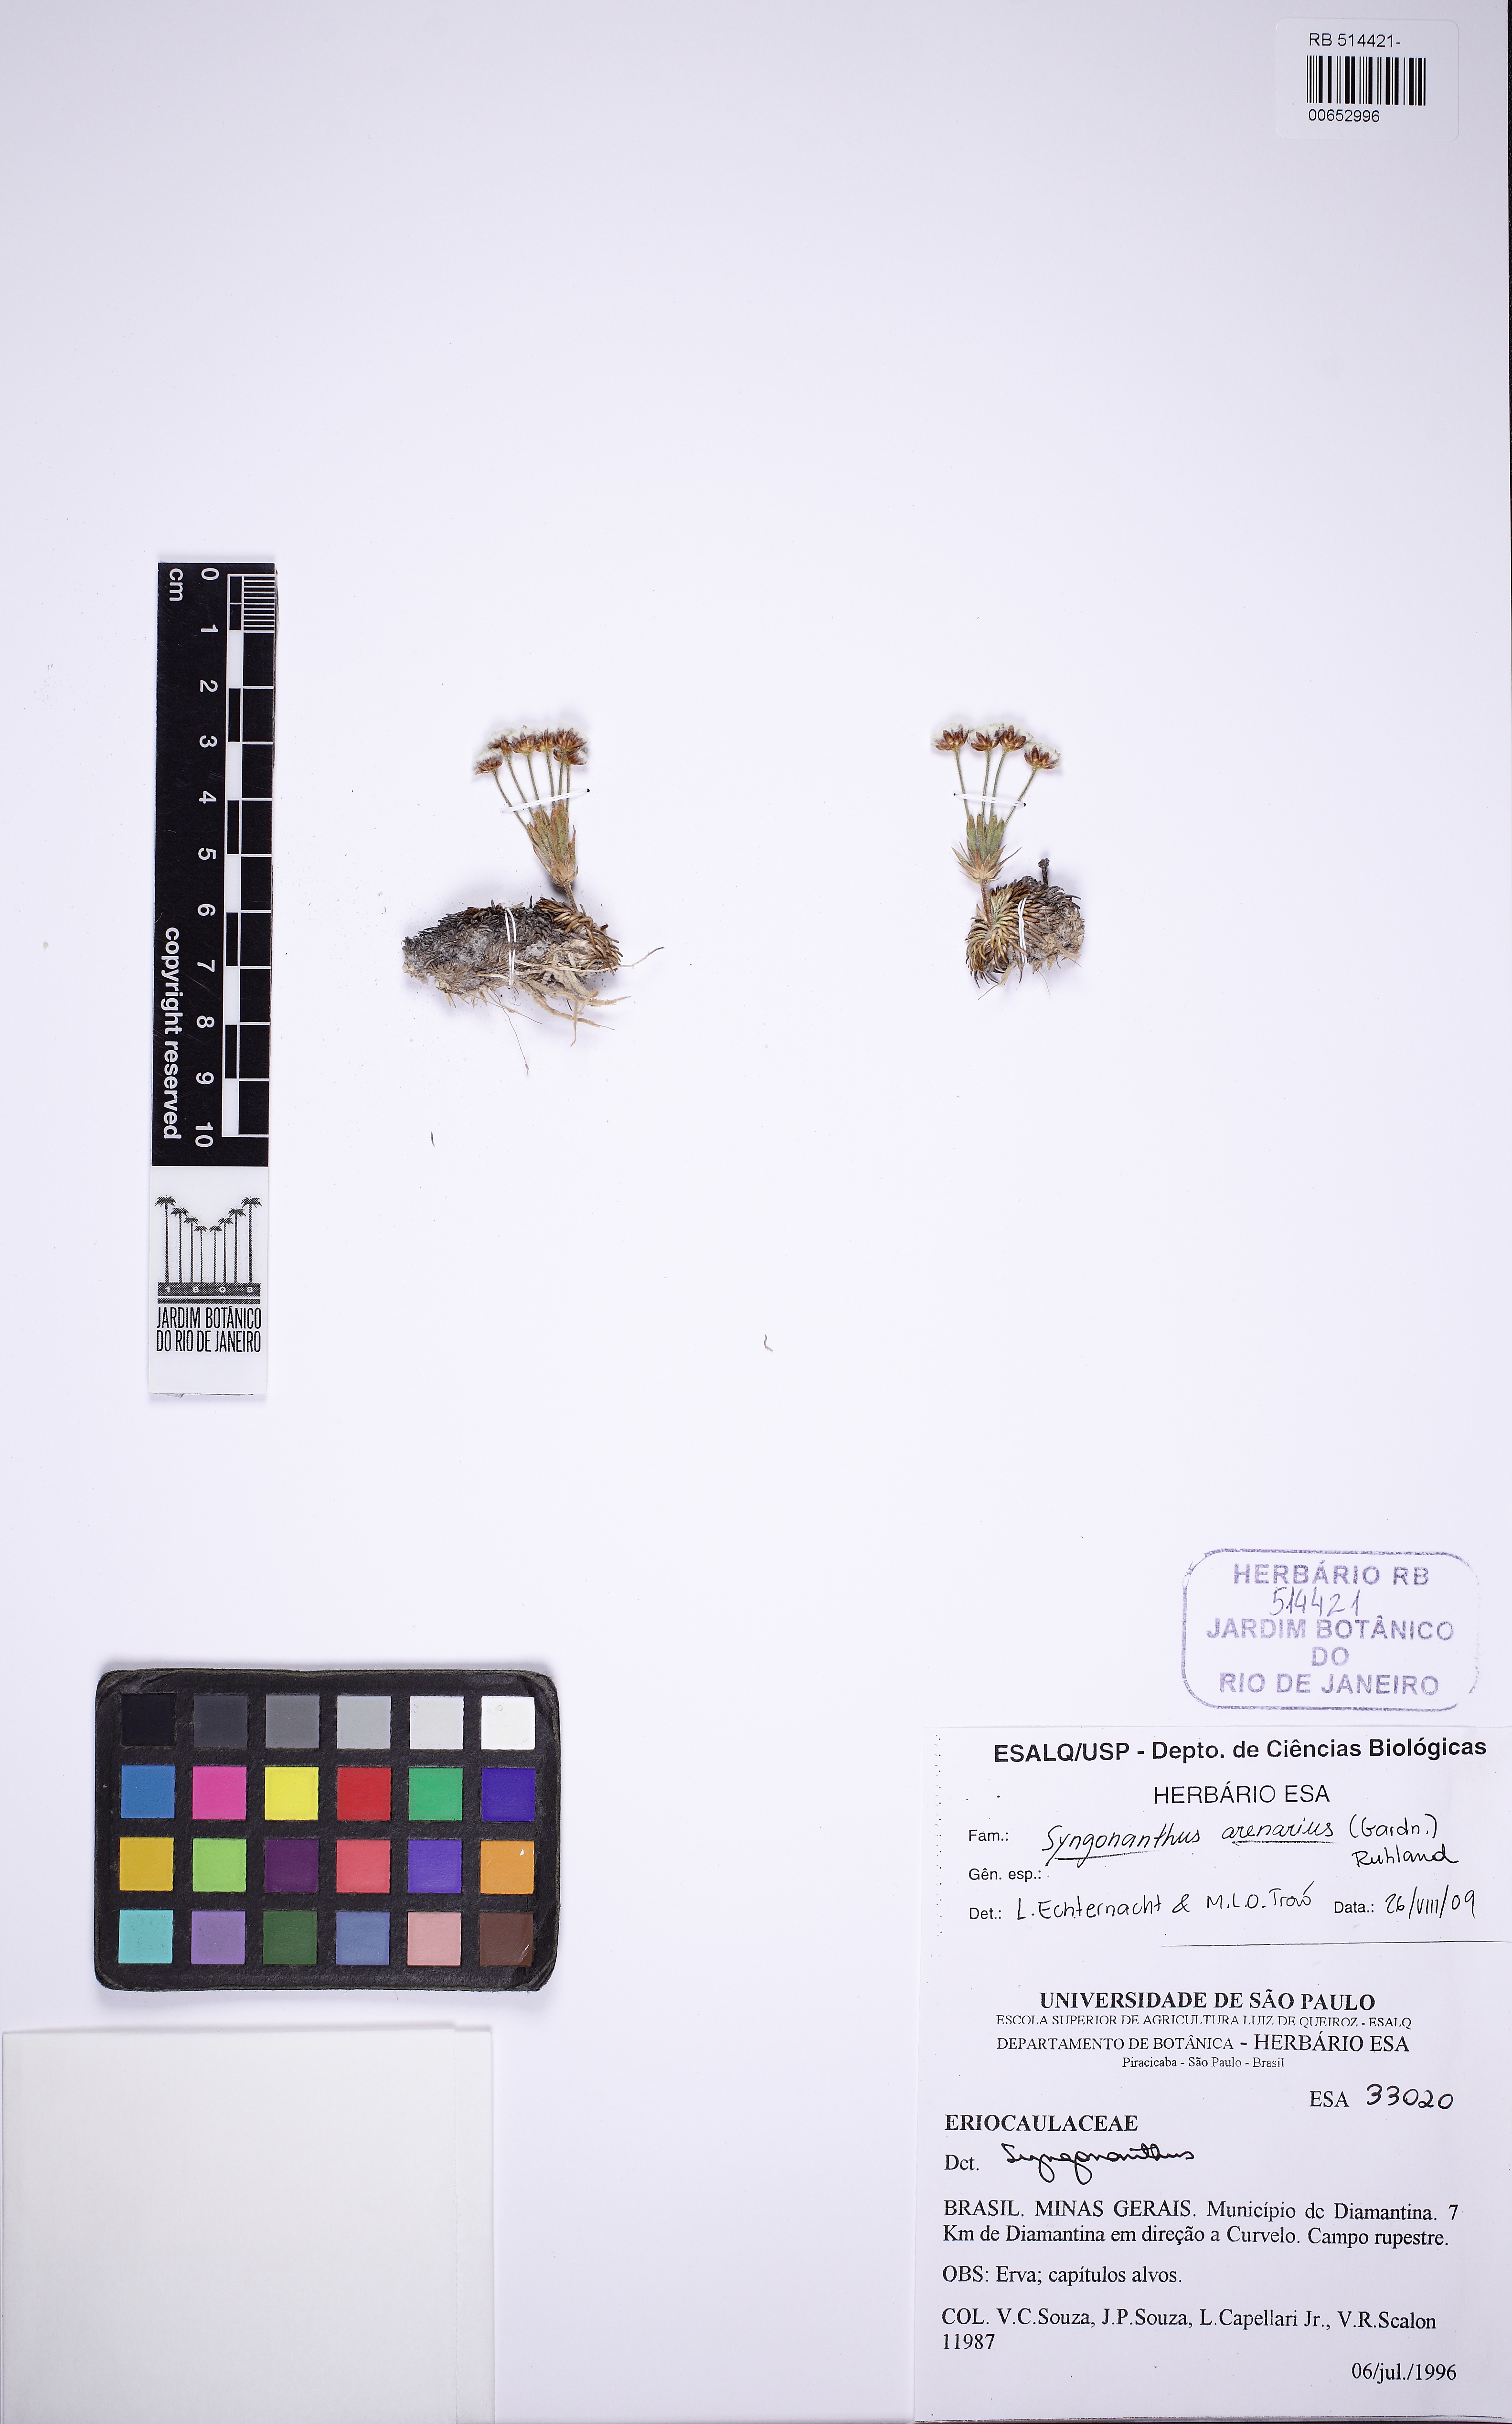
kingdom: Plantae
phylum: Tracheophyta
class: Liliopsida
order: Poales
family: Eriocaulaceae
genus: Syngonanthus
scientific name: Syngonanthus arenarius
